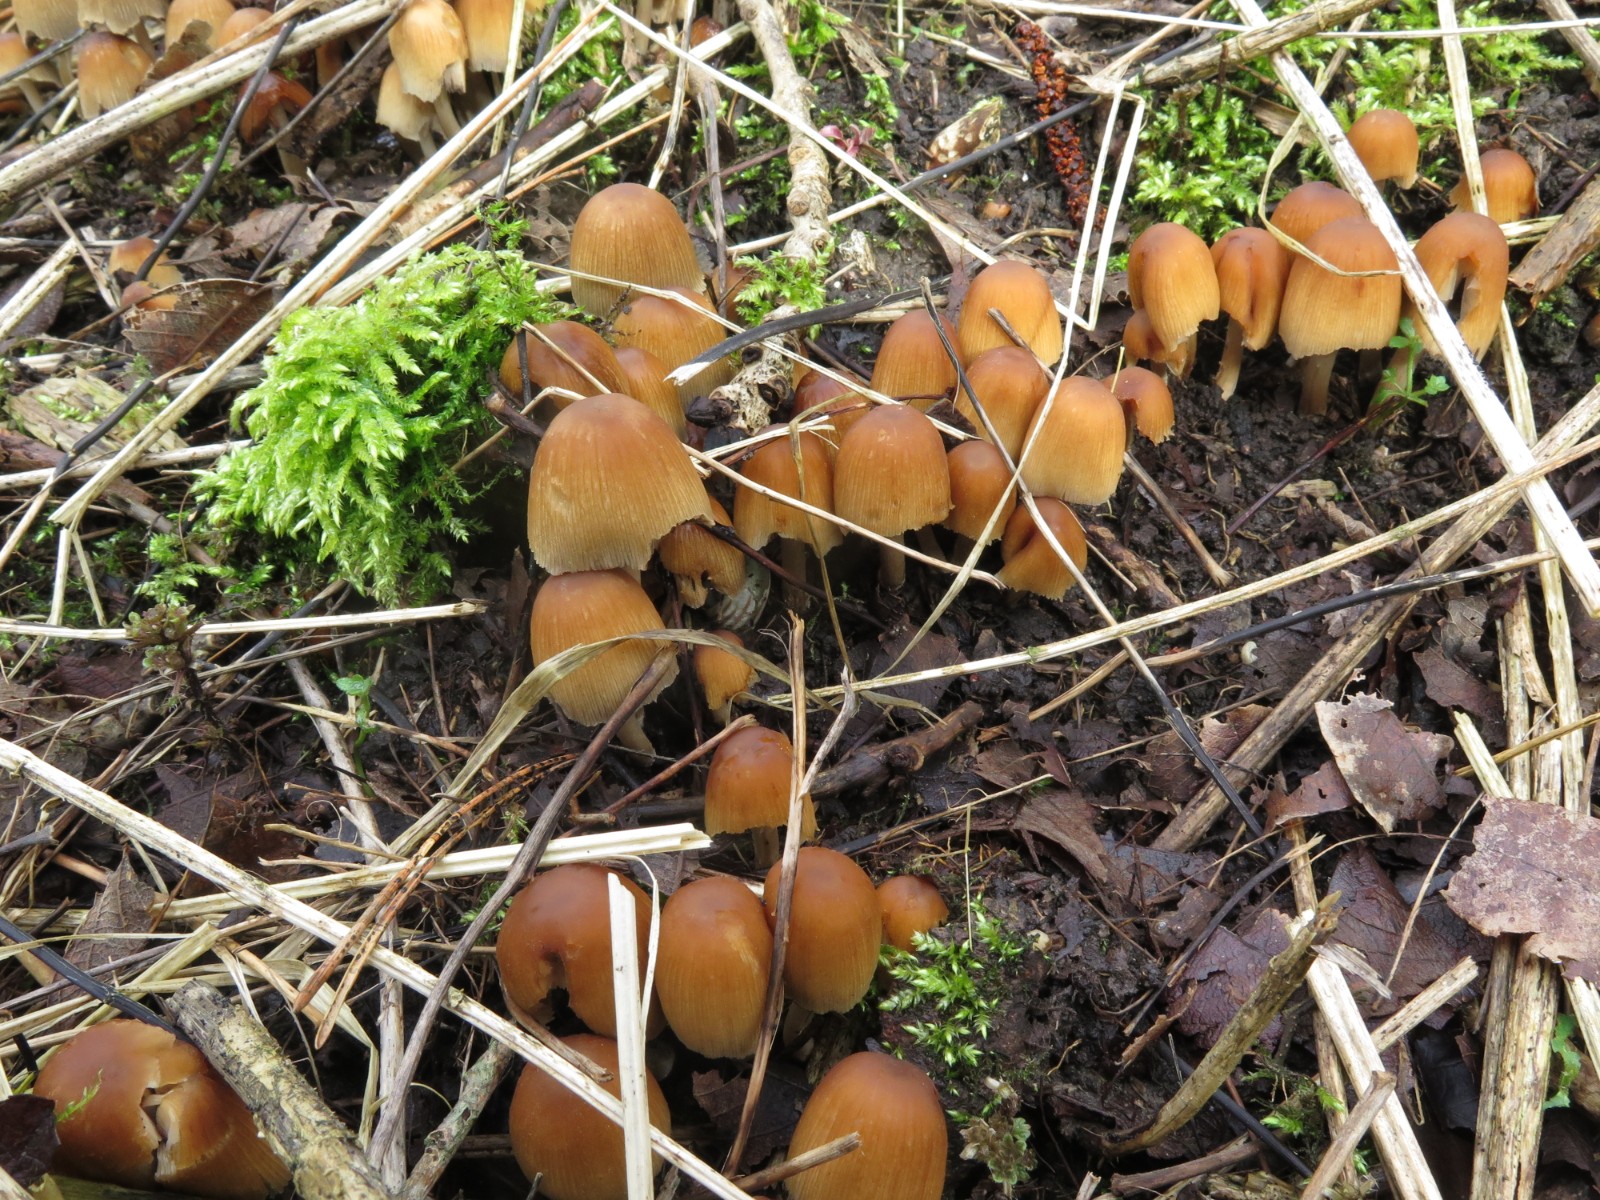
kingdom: Fungi
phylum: Basidiomycota
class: Agaricomycetes
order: Agaricales
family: Psathyrellaceae
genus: Coprinellus
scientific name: Coprinellus micaceus
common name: glimmer-blækhat
